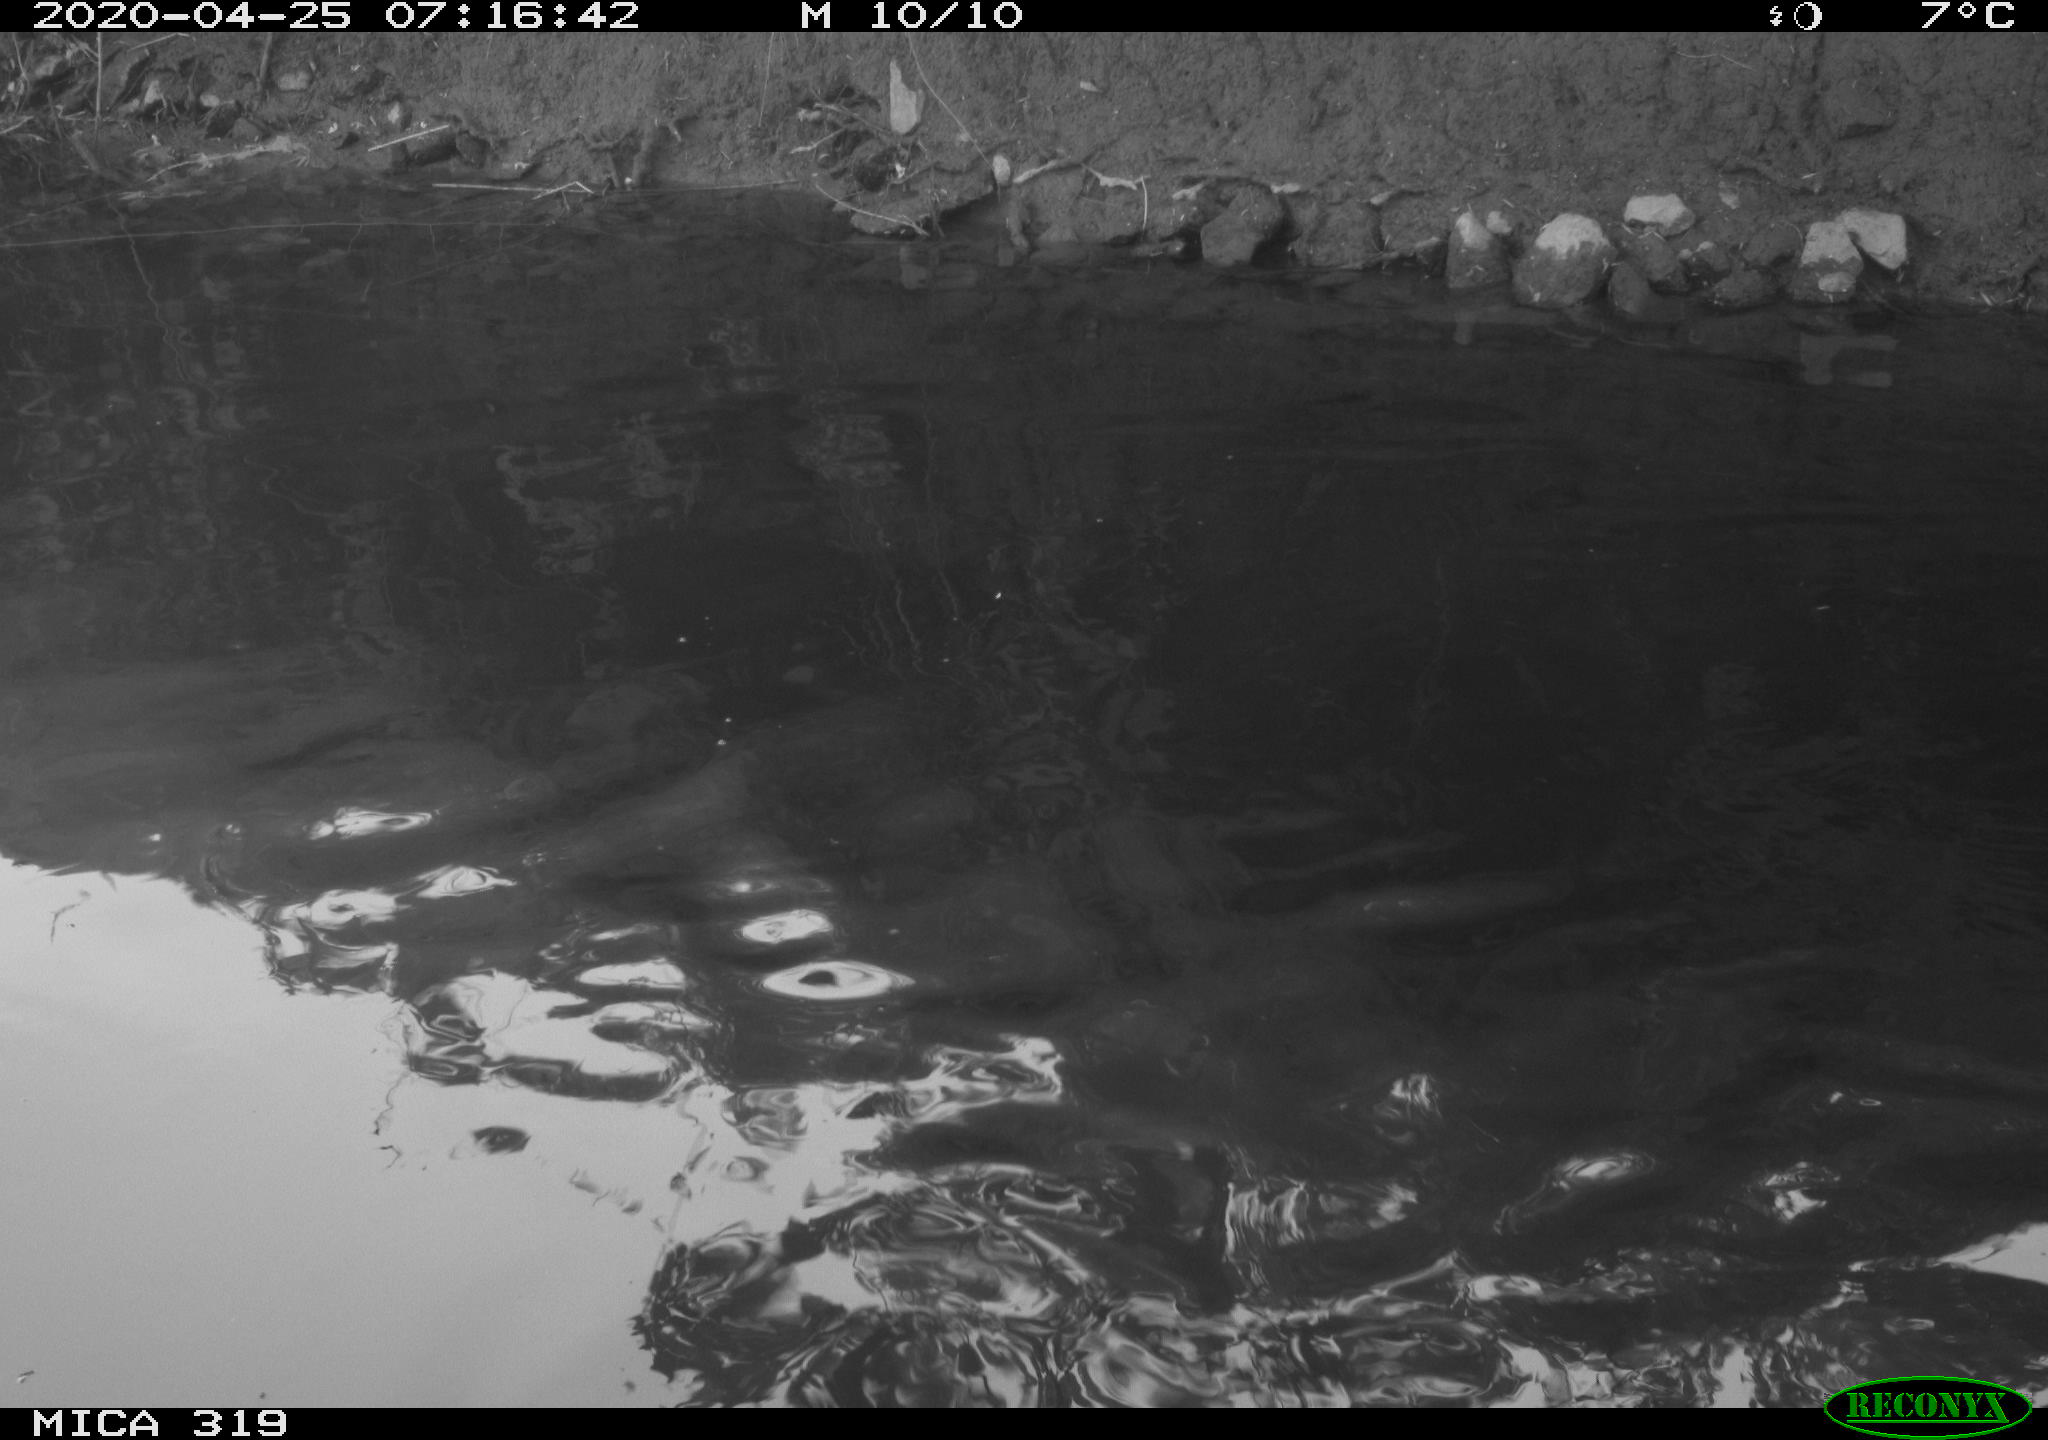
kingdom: Animalia
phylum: Chordata
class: Aves
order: Anseriformes
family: Anatidae
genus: Anas
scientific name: Anas platyrhynchos
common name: Mallard
